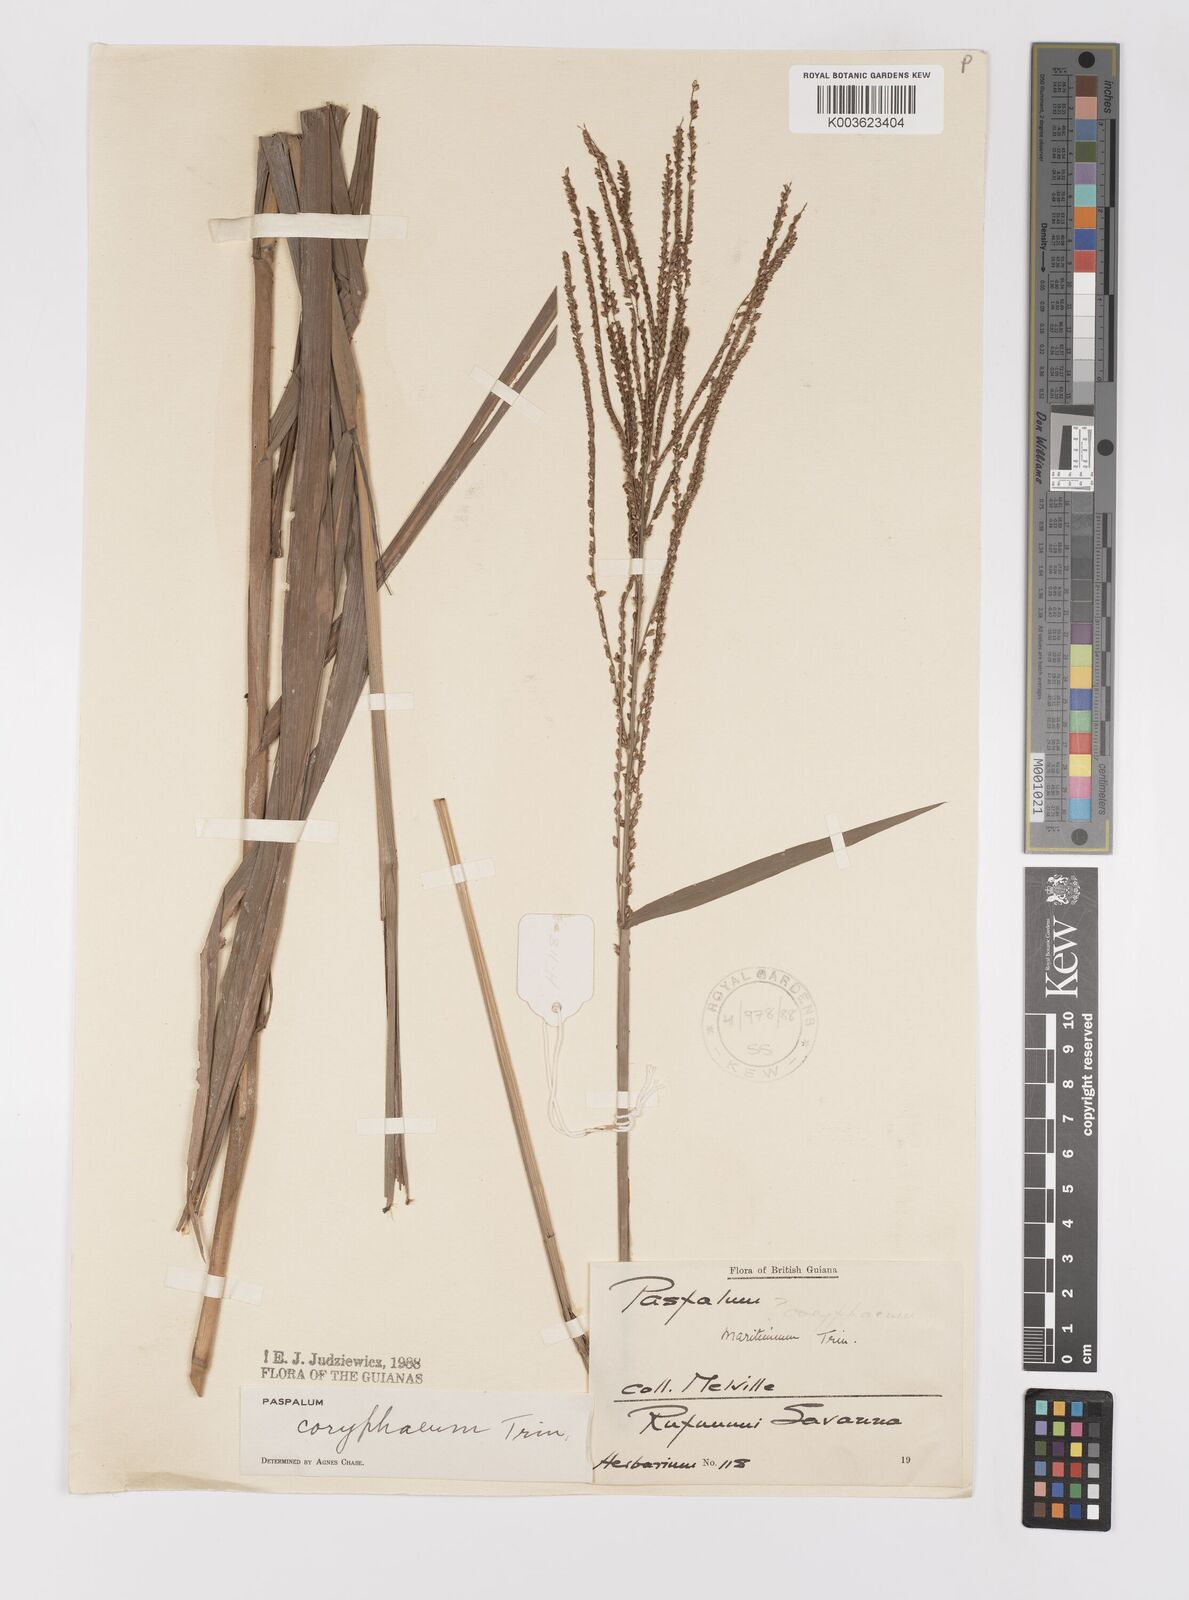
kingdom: Plantae
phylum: Tracheophyta
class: Liliopsida
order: Poales
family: Poaceae
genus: Paspalum
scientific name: Paspalum coryphaeum
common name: Emperor crowngrass
